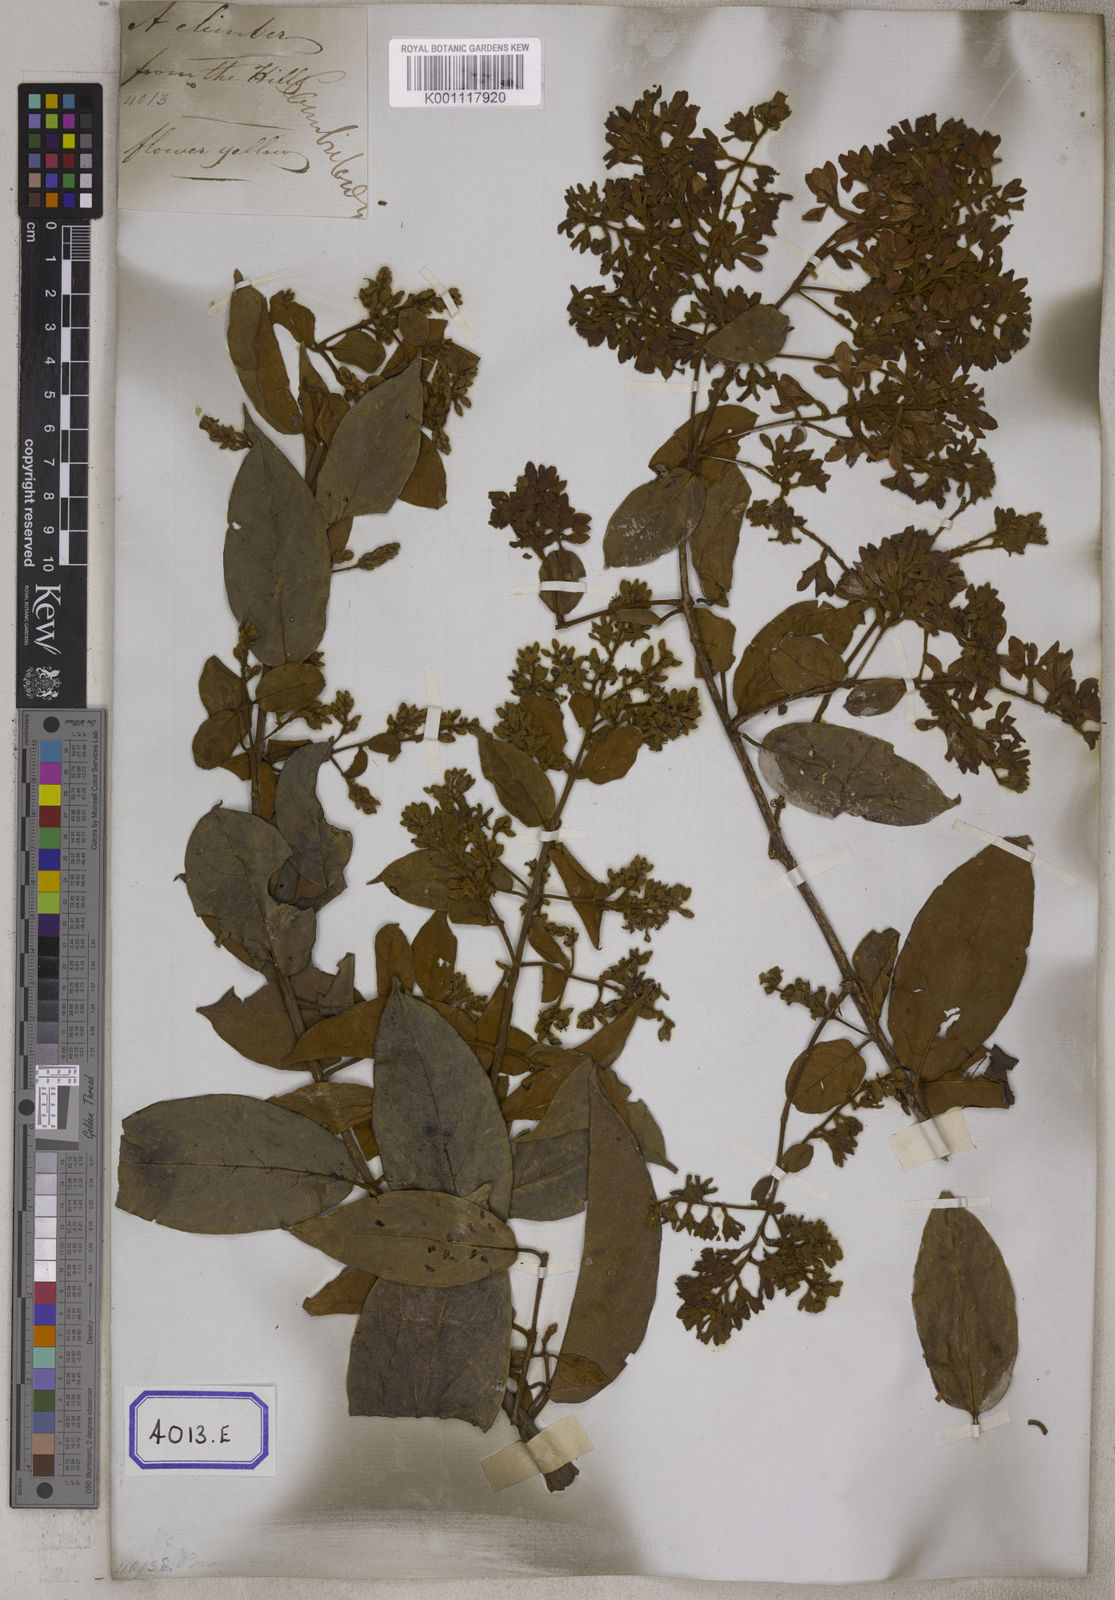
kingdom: Plantae
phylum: Tracheophyta
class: Magnoliopsida
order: Myrtales
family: Combretaceae
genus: Getonia
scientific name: Getonia floribunda
